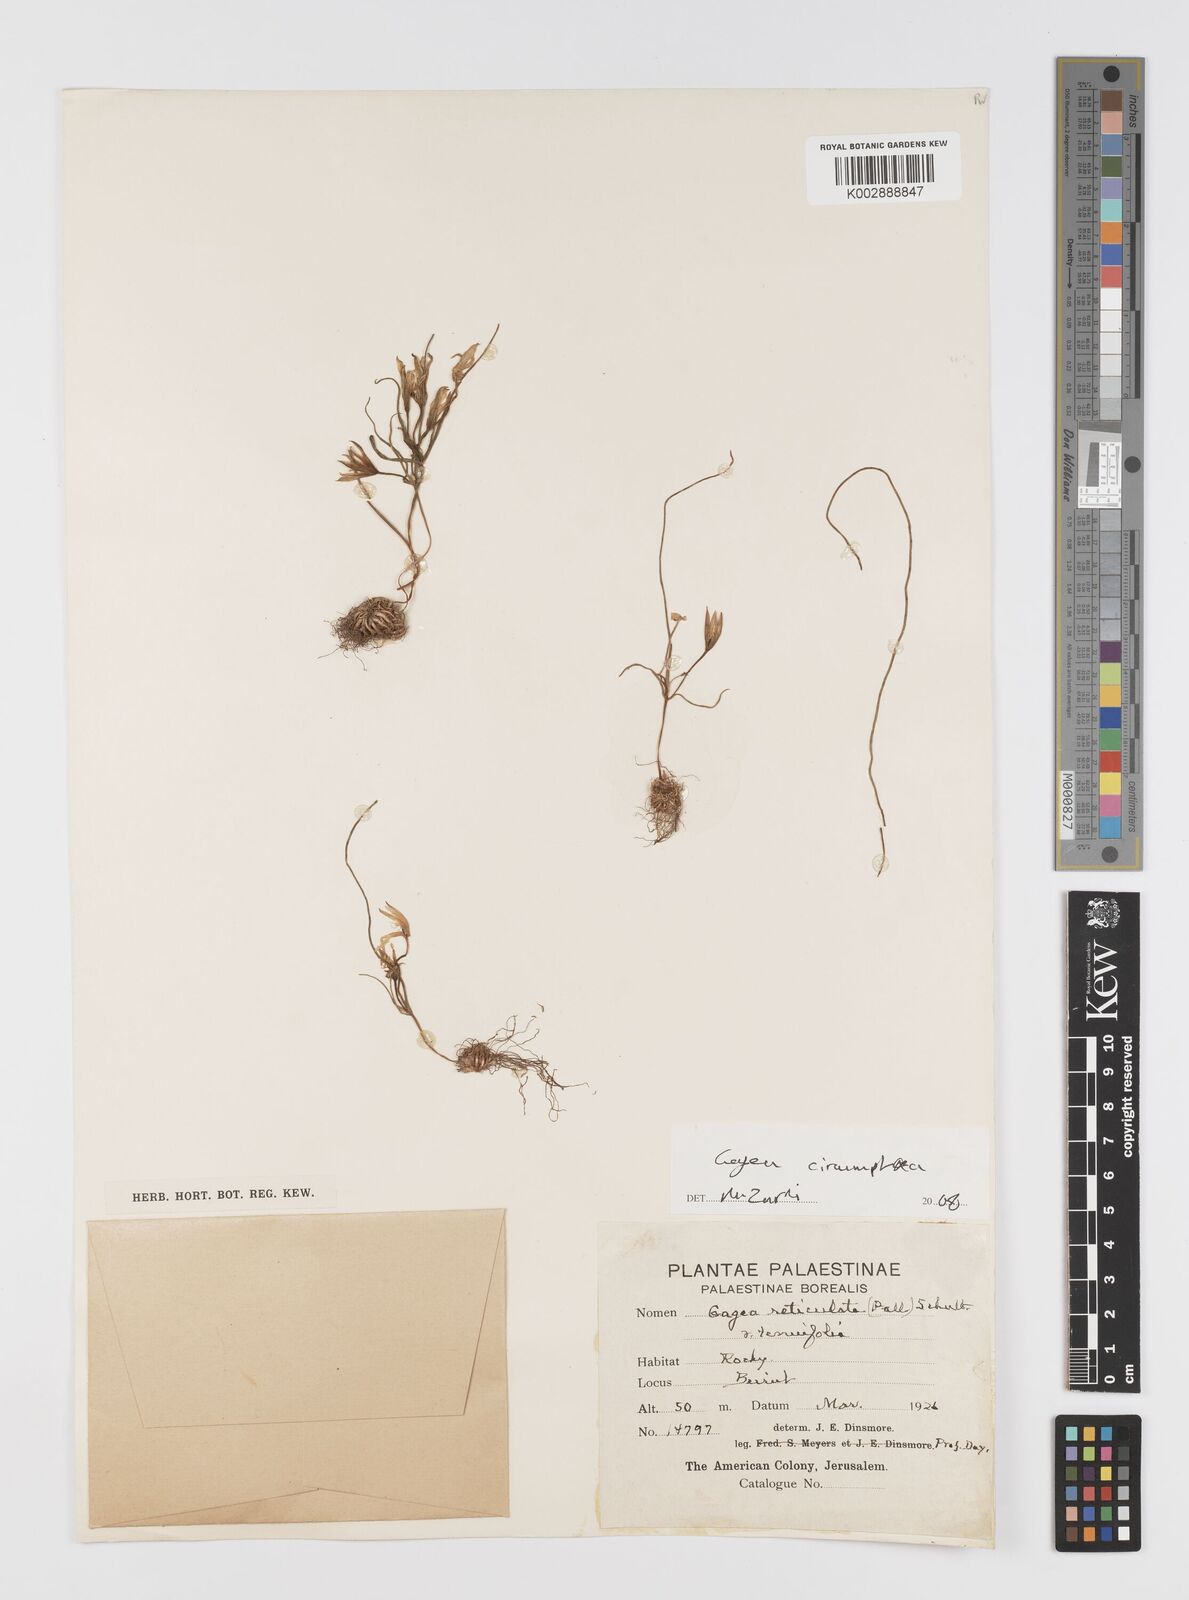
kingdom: Plantae
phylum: Tracheophyta
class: Liliopsida
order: Liliales
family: Liliaceae
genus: Gagea
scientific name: Gagea
